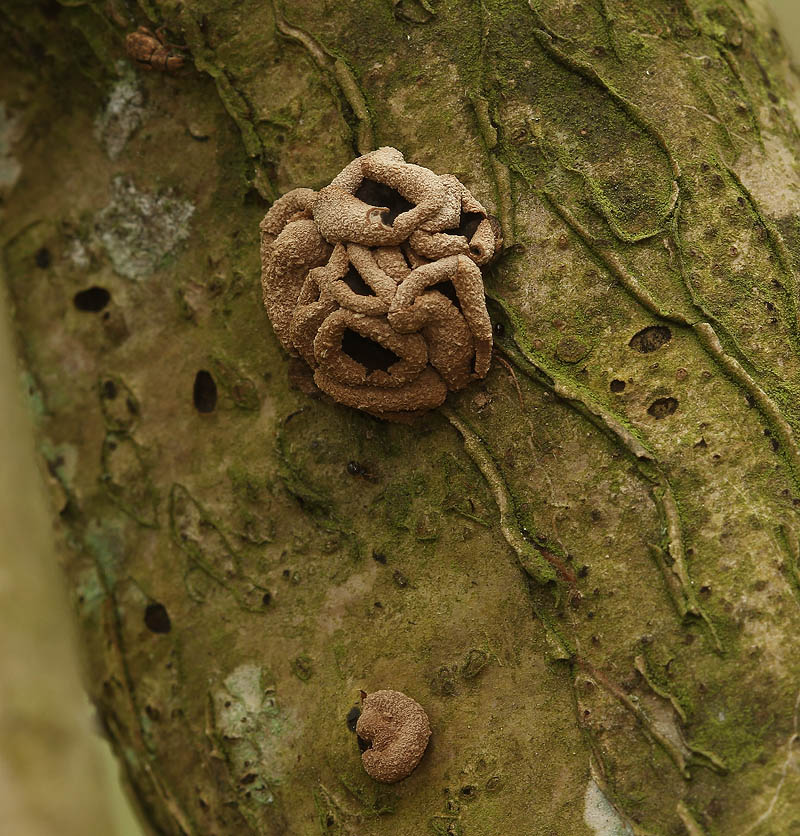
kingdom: Fungi
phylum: Ascomycota
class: Leotiomycetes
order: Helotiales
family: Cenangiaceae
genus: Encoelia
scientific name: Encoelia furfuracea
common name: hassel-læderskive
